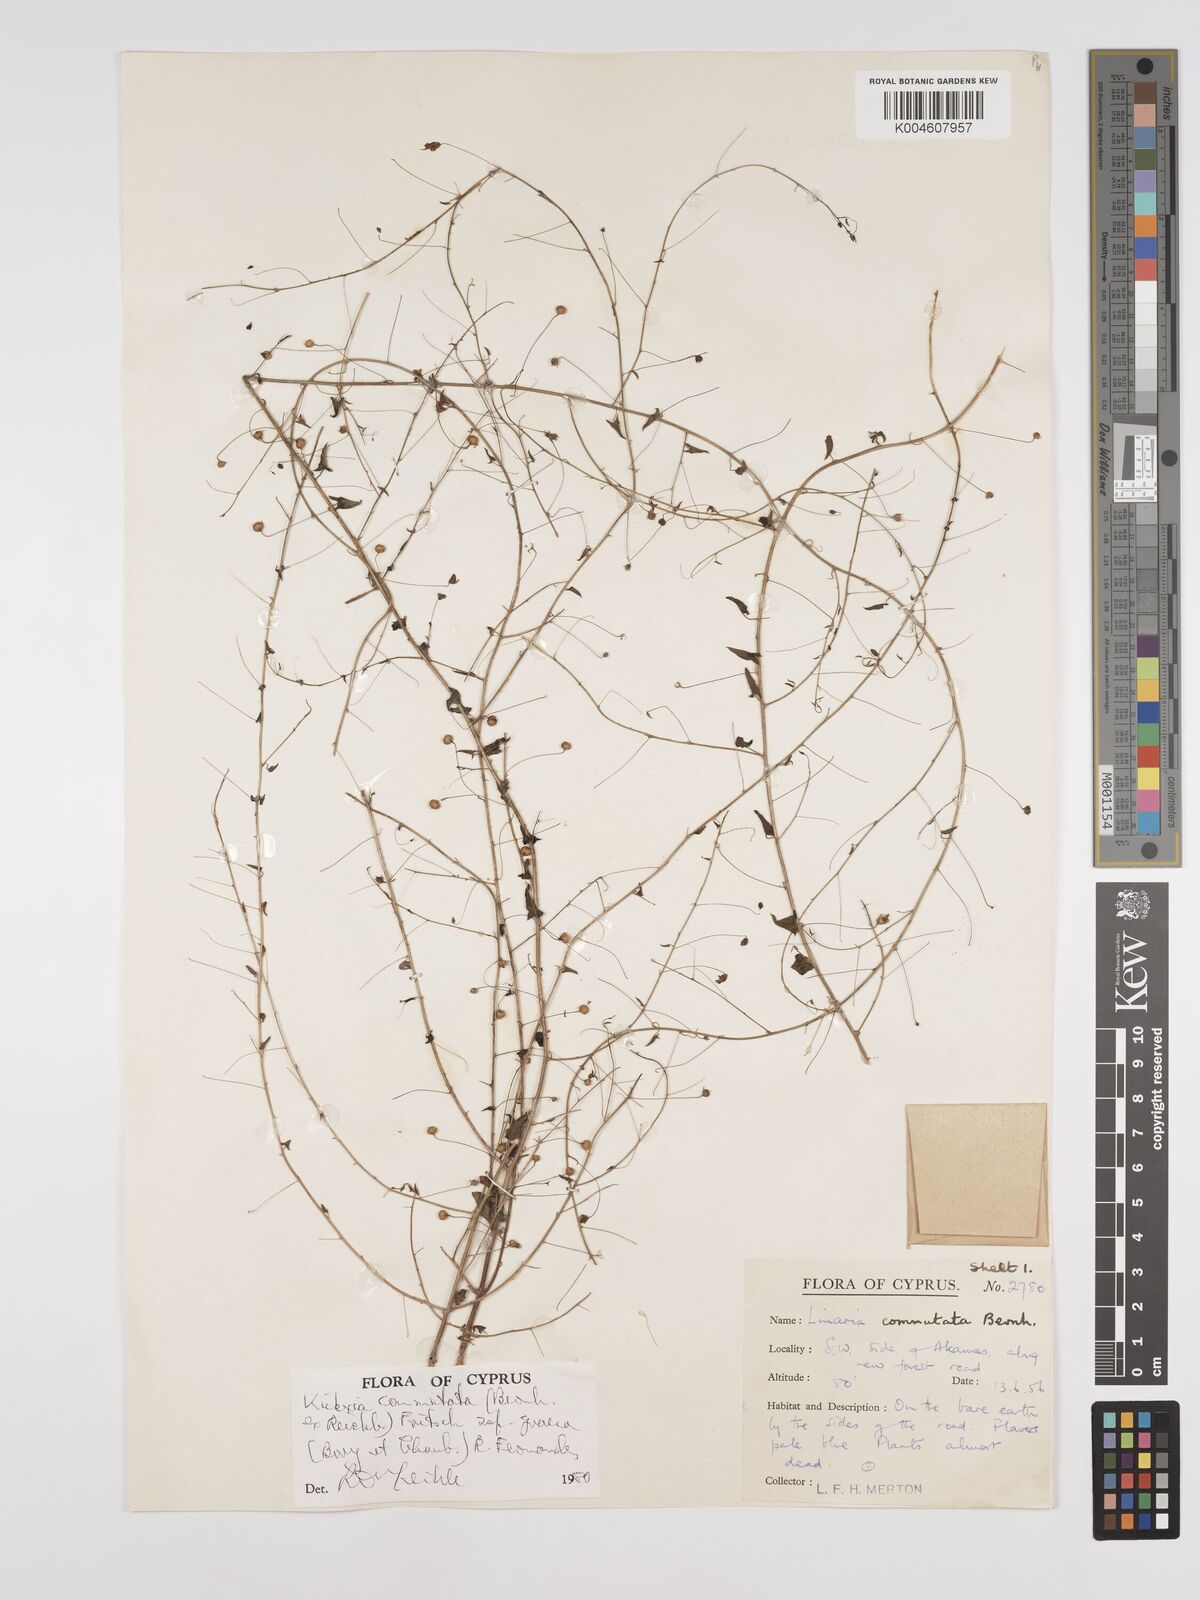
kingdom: Plantae
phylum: Tracheophyta
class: Magnoliopsida
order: Lamiales
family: Plantaginaceae
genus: Kickxia
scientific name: Kickxia commutata
